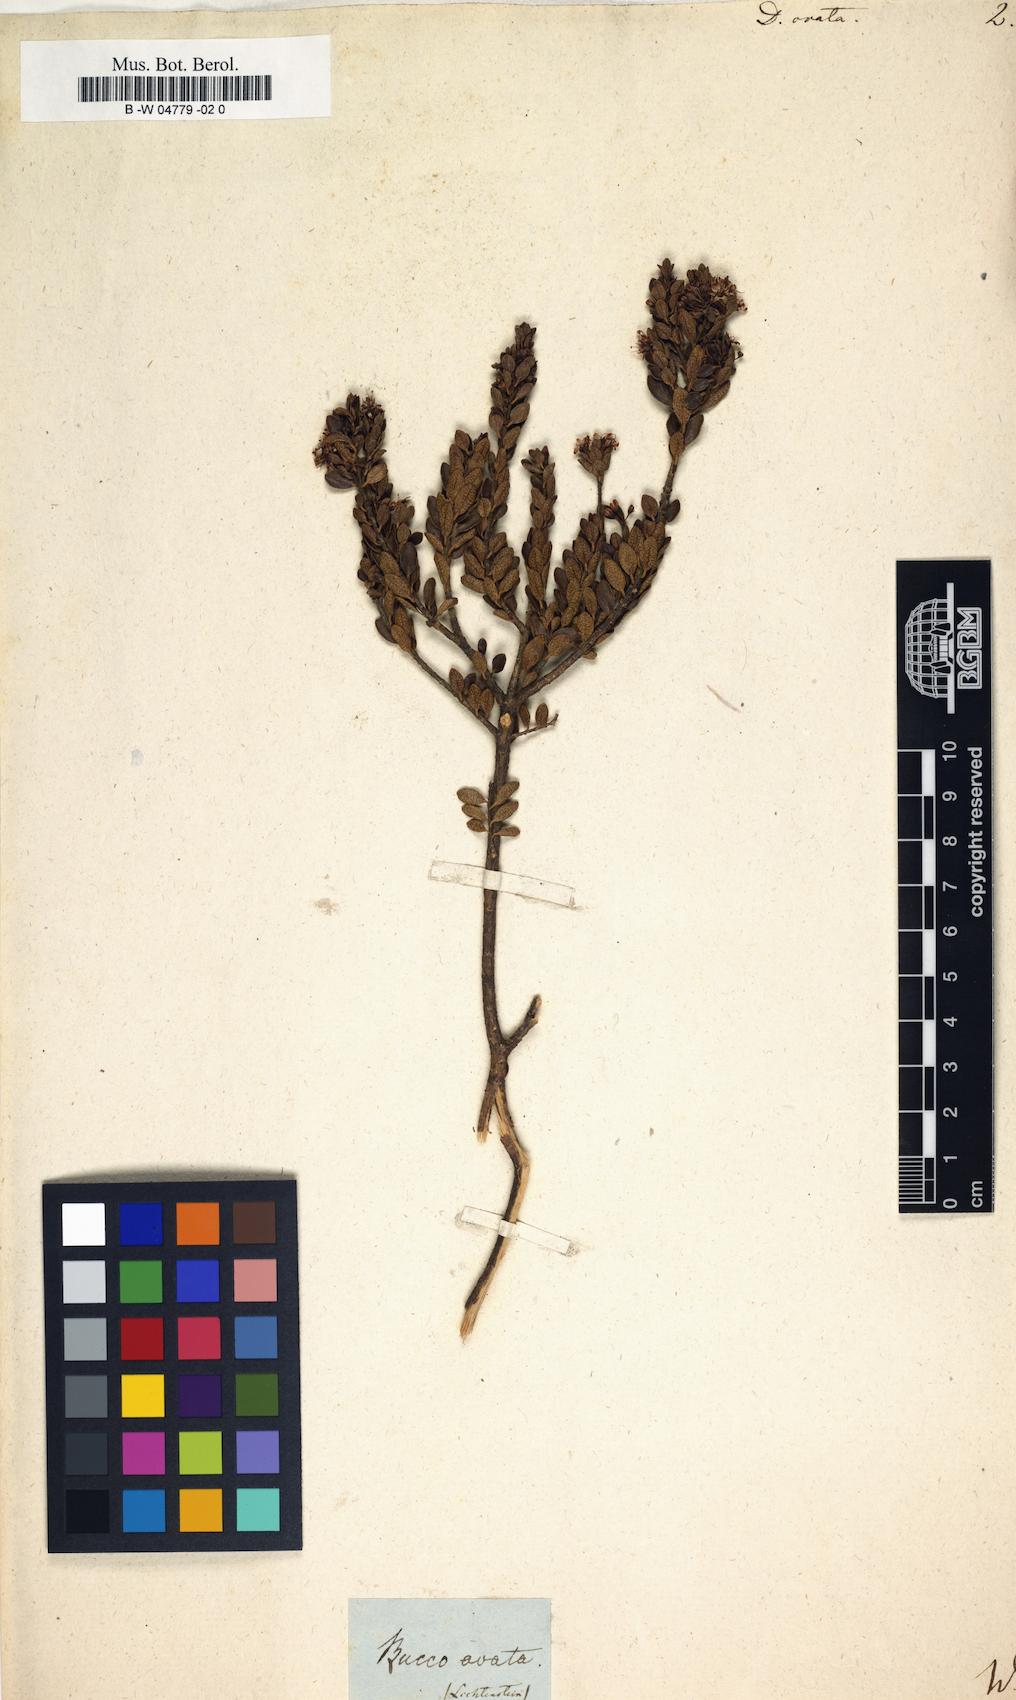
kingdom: Plantae
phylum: Tracheophyta
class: Magnoliopsida
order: Sapindales
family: Rutaceae
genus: Agathosma
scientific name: Agathosma ovata
